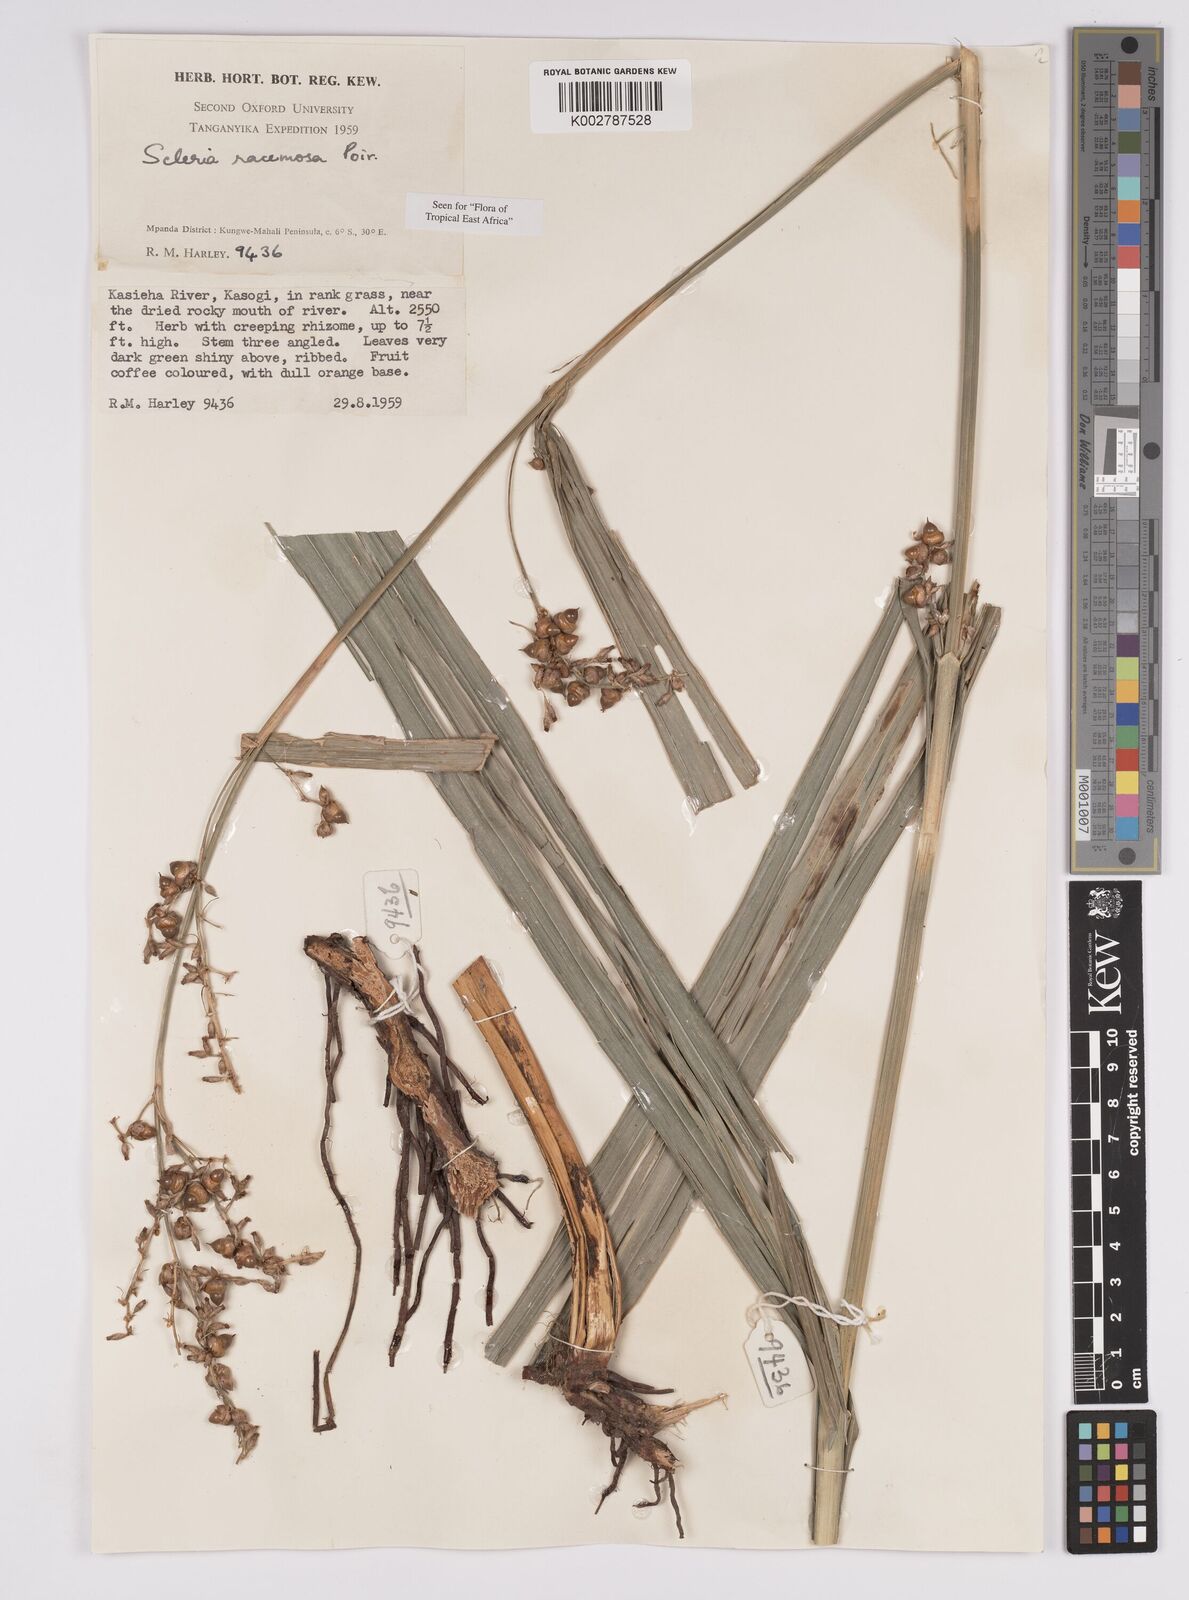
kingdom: Plantae
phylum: Tracheophyta
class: Liliopsida
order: Poales
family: Cyperaceae
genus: Scleria
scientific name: Scleria racemosa
